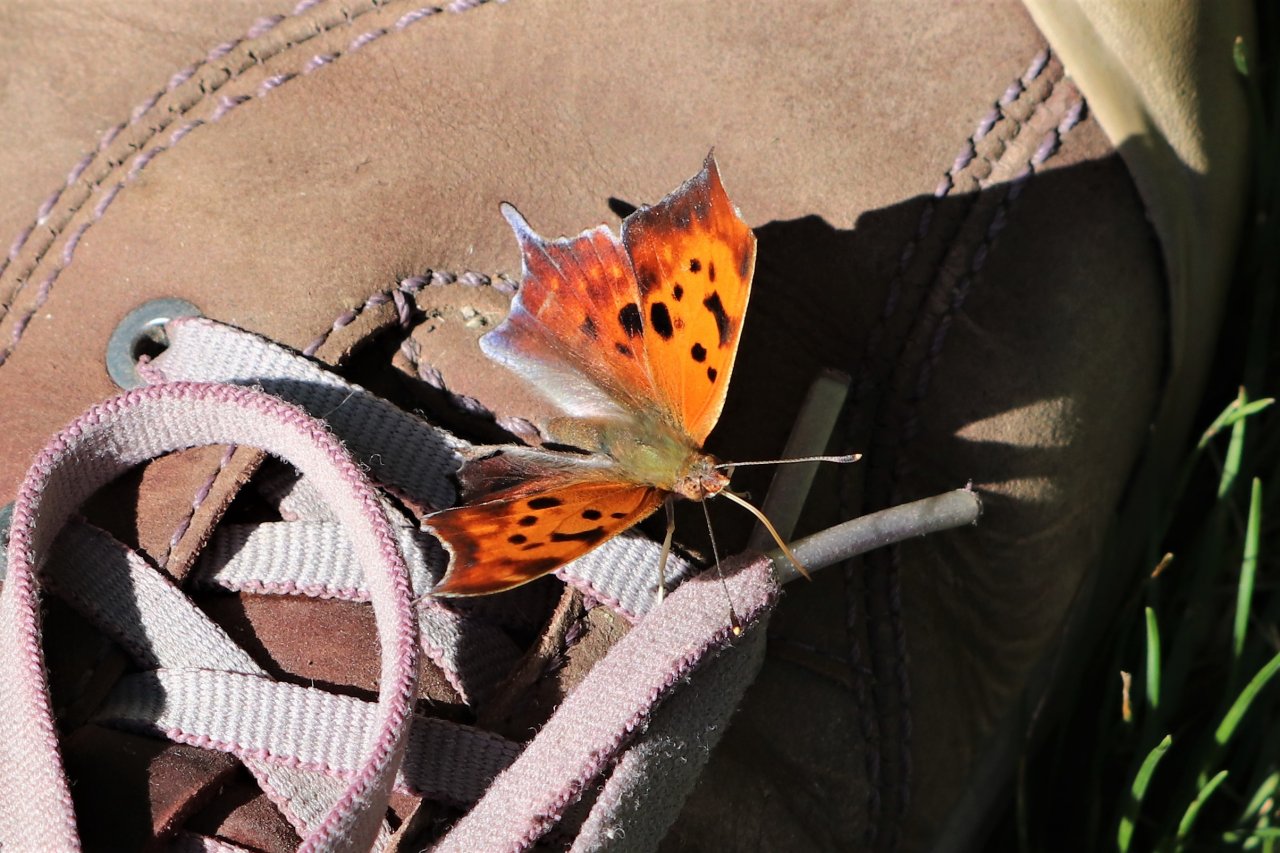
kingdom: Animalia
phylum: Arthropoda
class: Insecta
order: Lepidoptera
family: Nymphalidae
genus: Polygonia
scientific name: Polygonia interrogationis
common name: Question Mark
